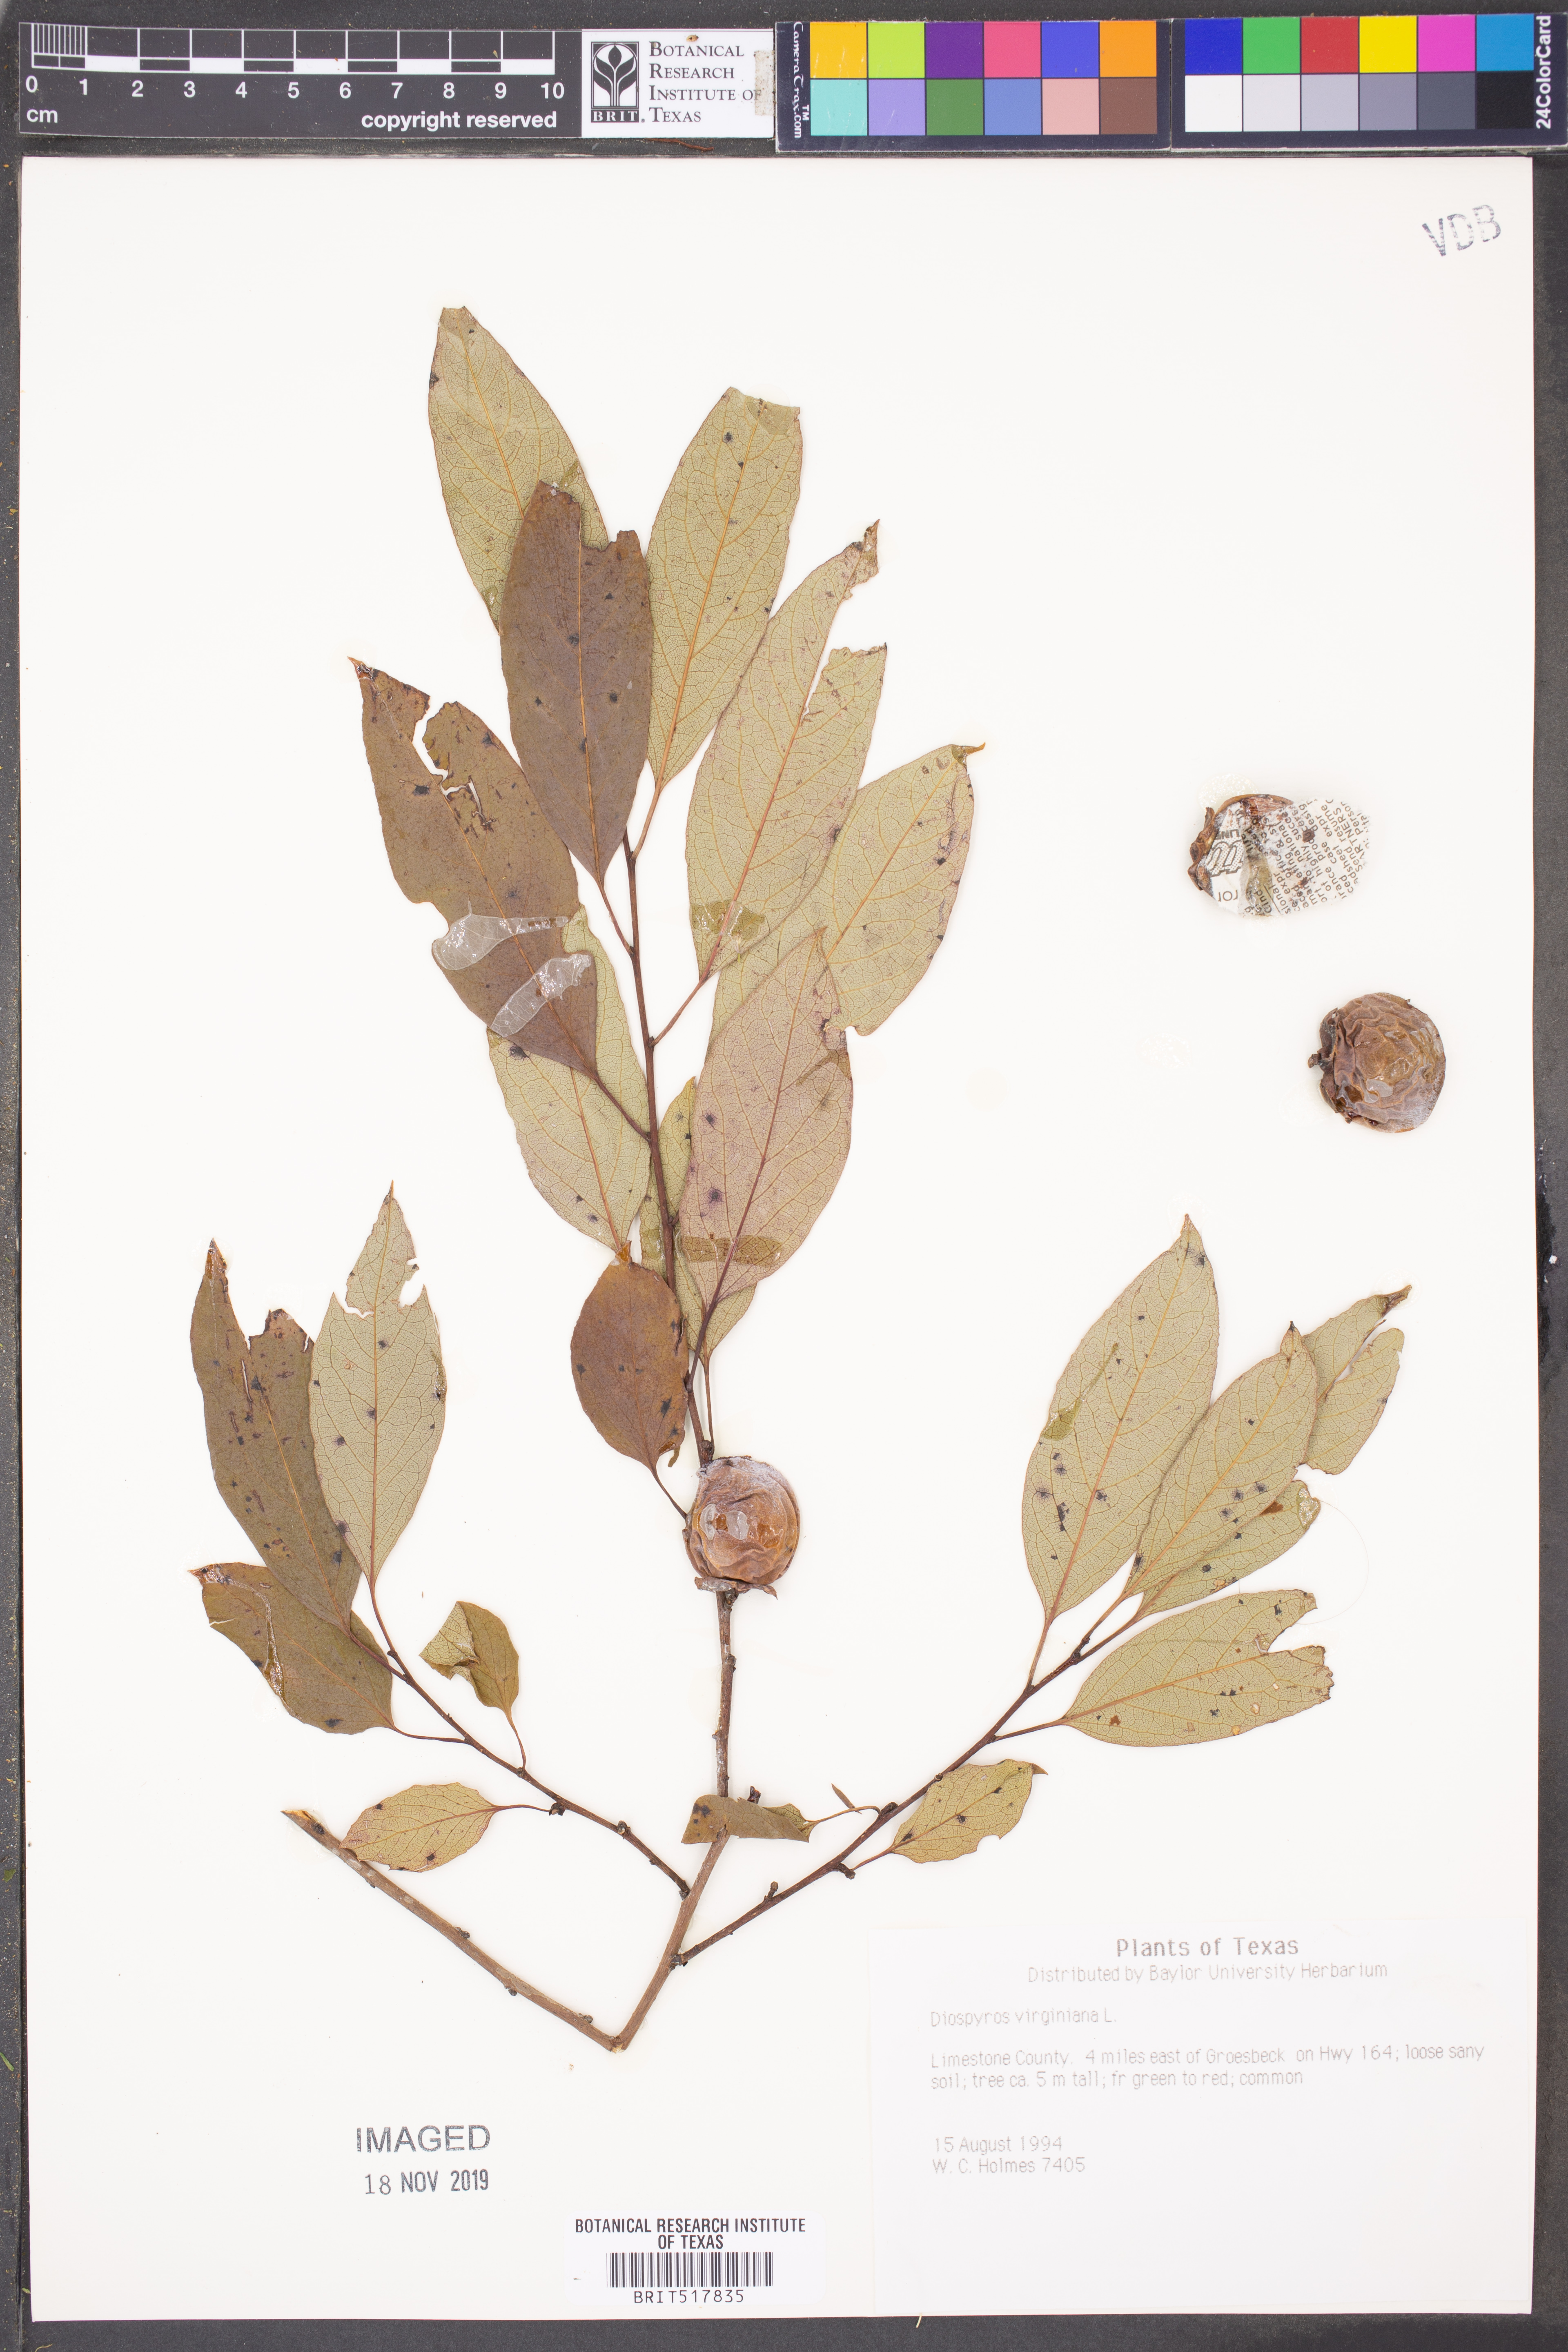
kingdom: Plantae
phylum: Tracheophyta
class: Magnoliopsida
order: Ericales
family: Ebenaceae
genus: Diospyros
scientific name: Diospyros virginiana
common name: Persimmon
